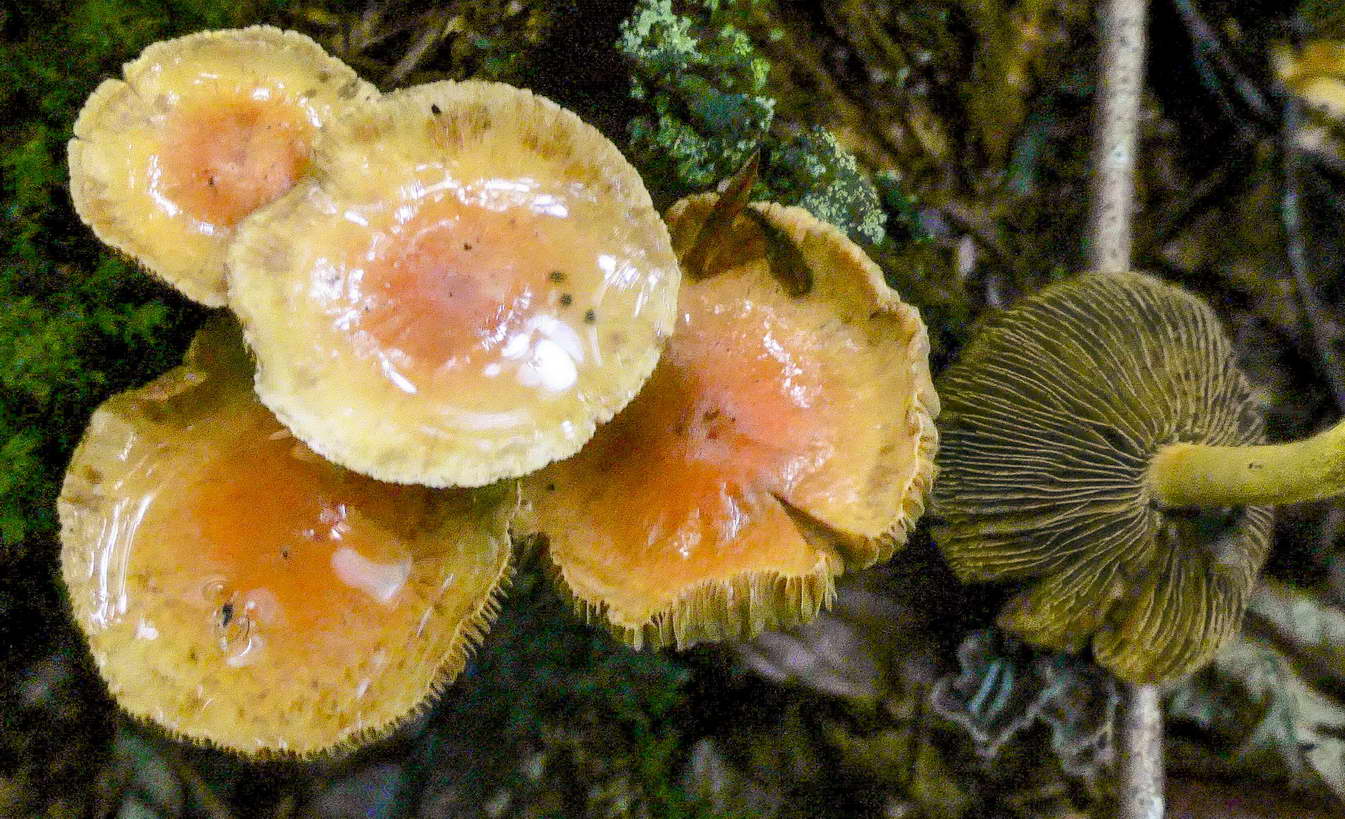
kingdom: Fungi
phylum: Basidiomycota
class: Agaricomycetes
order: Agaricales
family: Strophariaceae
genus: Pyrrhulomyces
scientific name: Pyrrhulomyces astragalinus
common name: safran-skælhat
